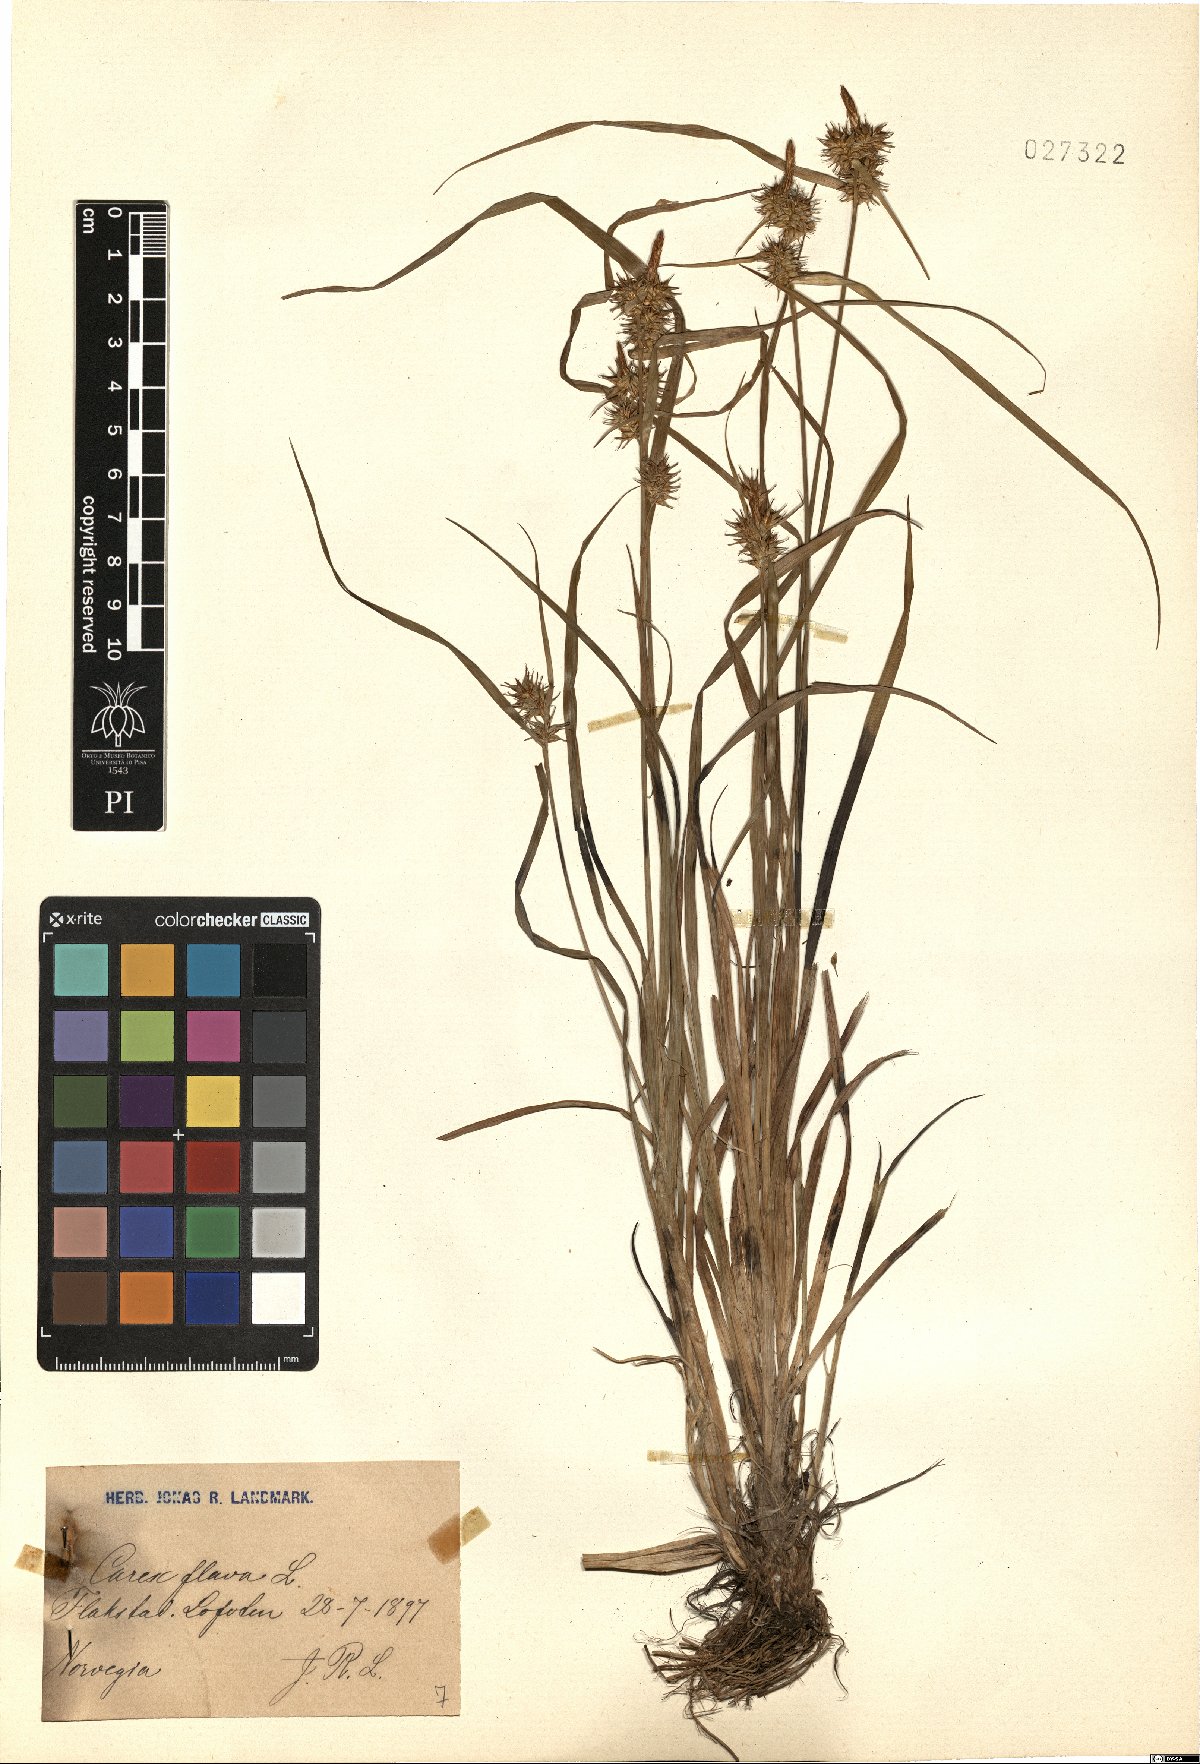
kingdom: Plantae
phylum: Tracheophyta
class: Liliopsida
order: Poales
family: Cyperaceae
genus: Carex
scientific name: Carex flava
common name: Large yellow-sedge
